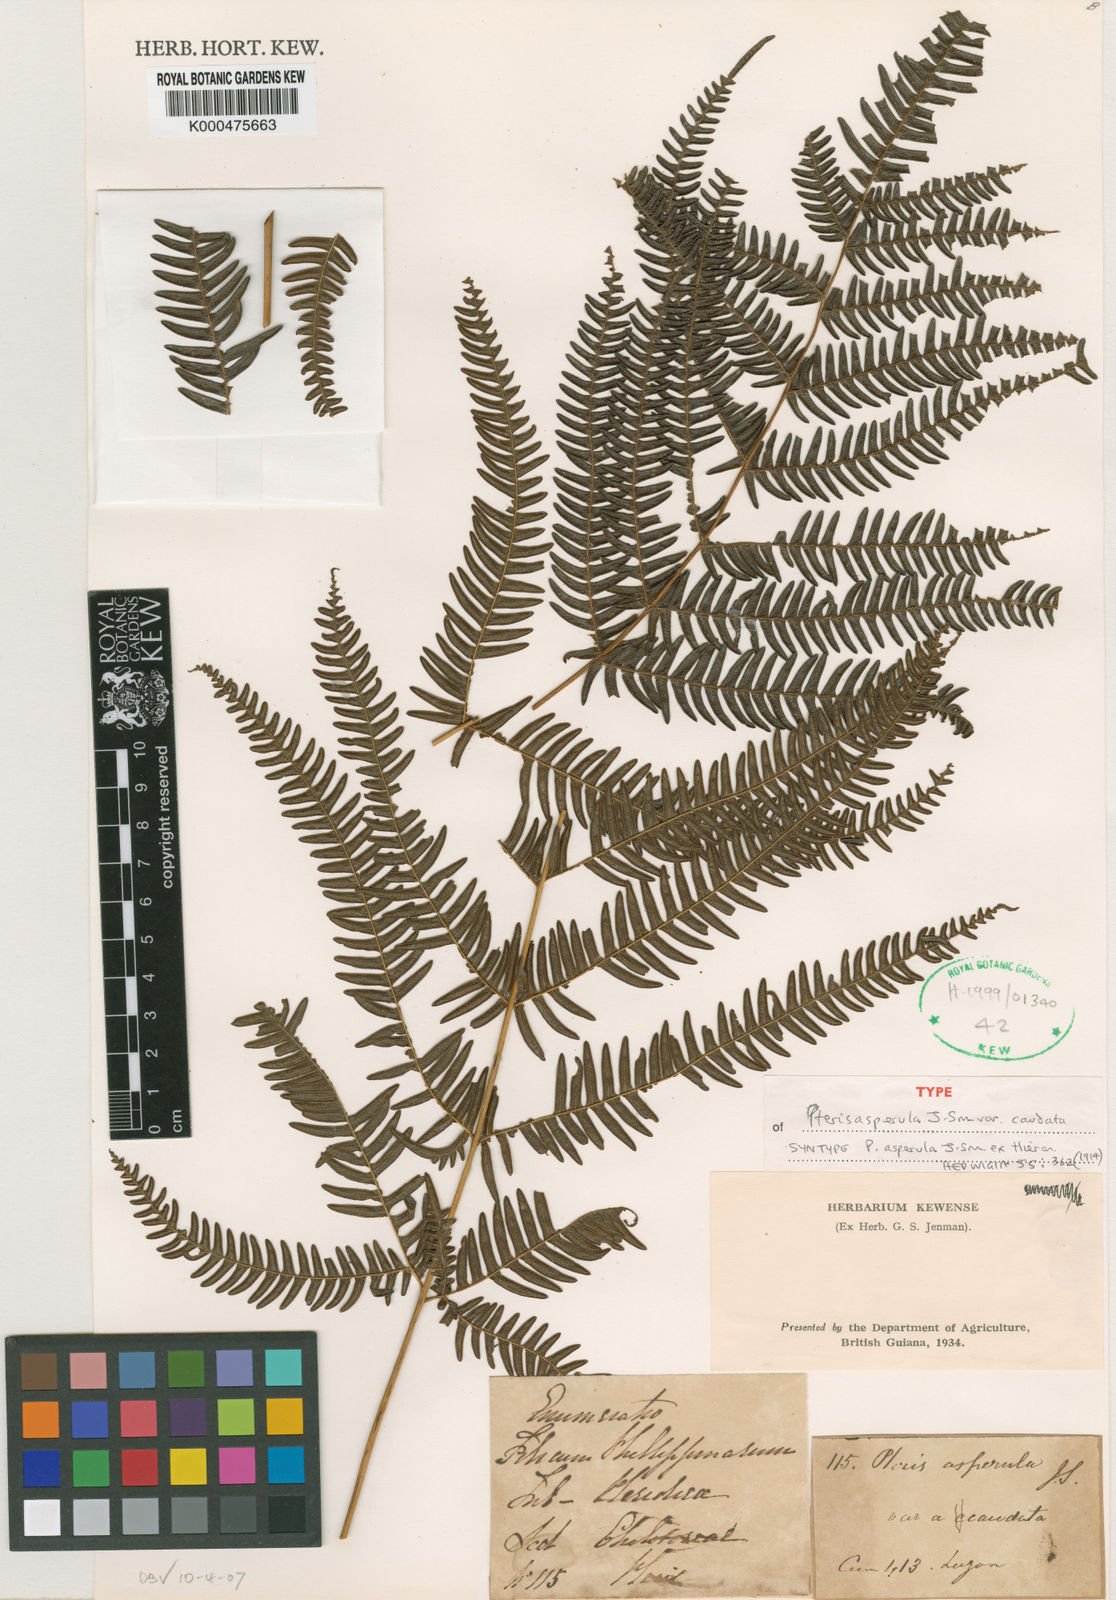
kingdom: Plantae
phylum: Tracheophyta
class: Polypodiopsida
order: Polypodiales
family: Pteridaceae
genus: Pteris
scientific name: Pteris oppositipinnata
